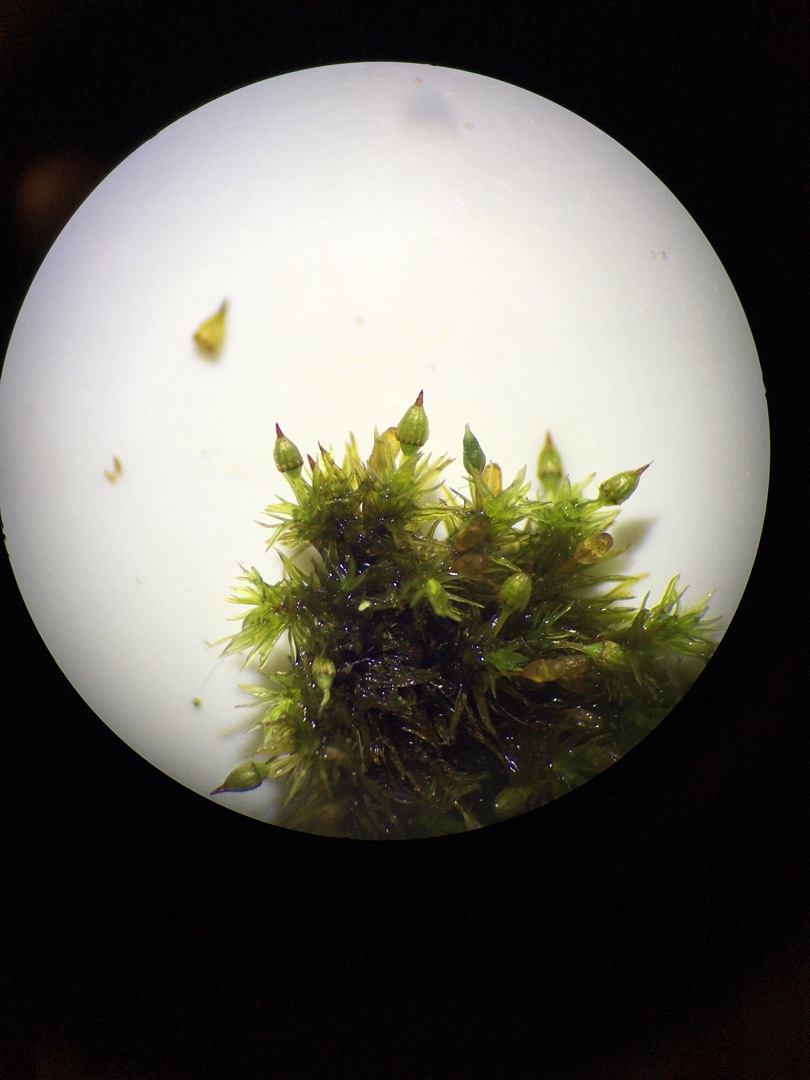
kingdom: Plantae
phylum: Bryophyta
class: Bryopsida
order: Orthotrichales
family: Orthotrichaceae
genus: Orthotrichum
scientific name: Orthotrichum pulchellum
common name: Smuk furehætte
